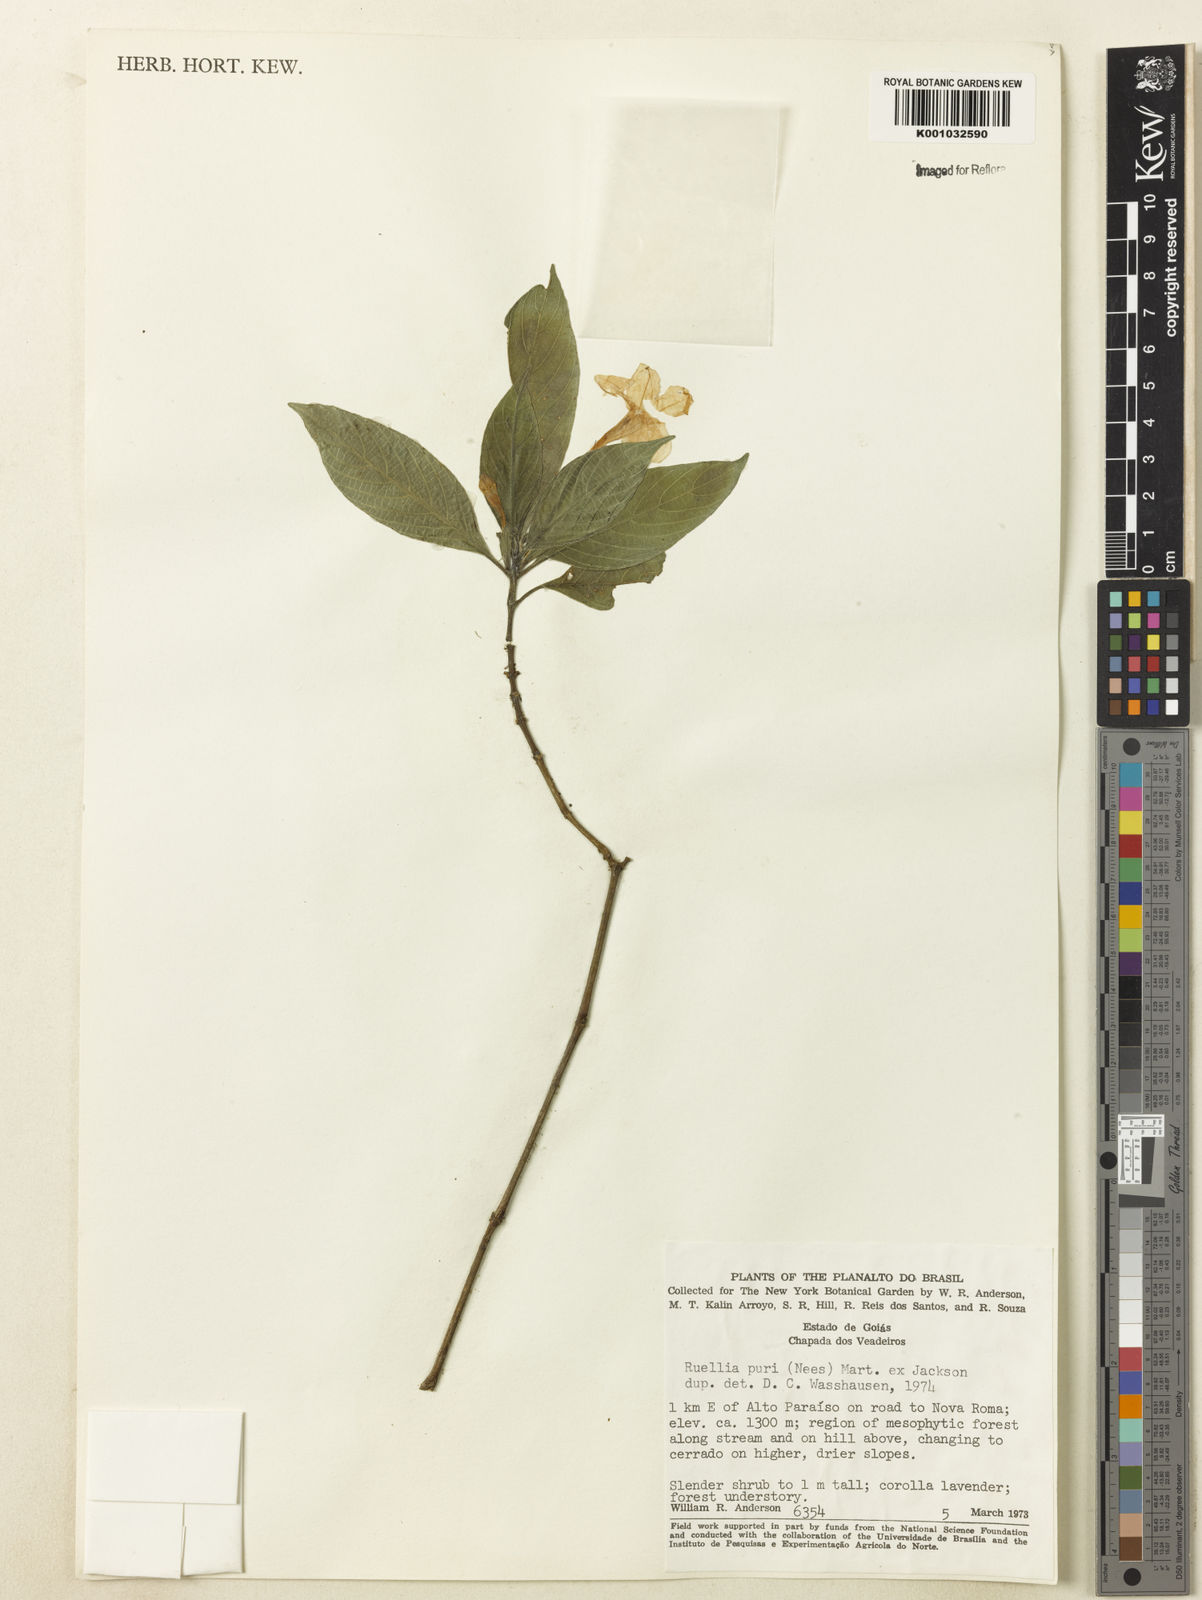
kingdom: Plantae
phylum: Tracheophyta
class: Magnoliopsida
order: Lamiales
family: Acanthaceae
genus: Ruellia
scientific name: Ruellia jussieuoides
